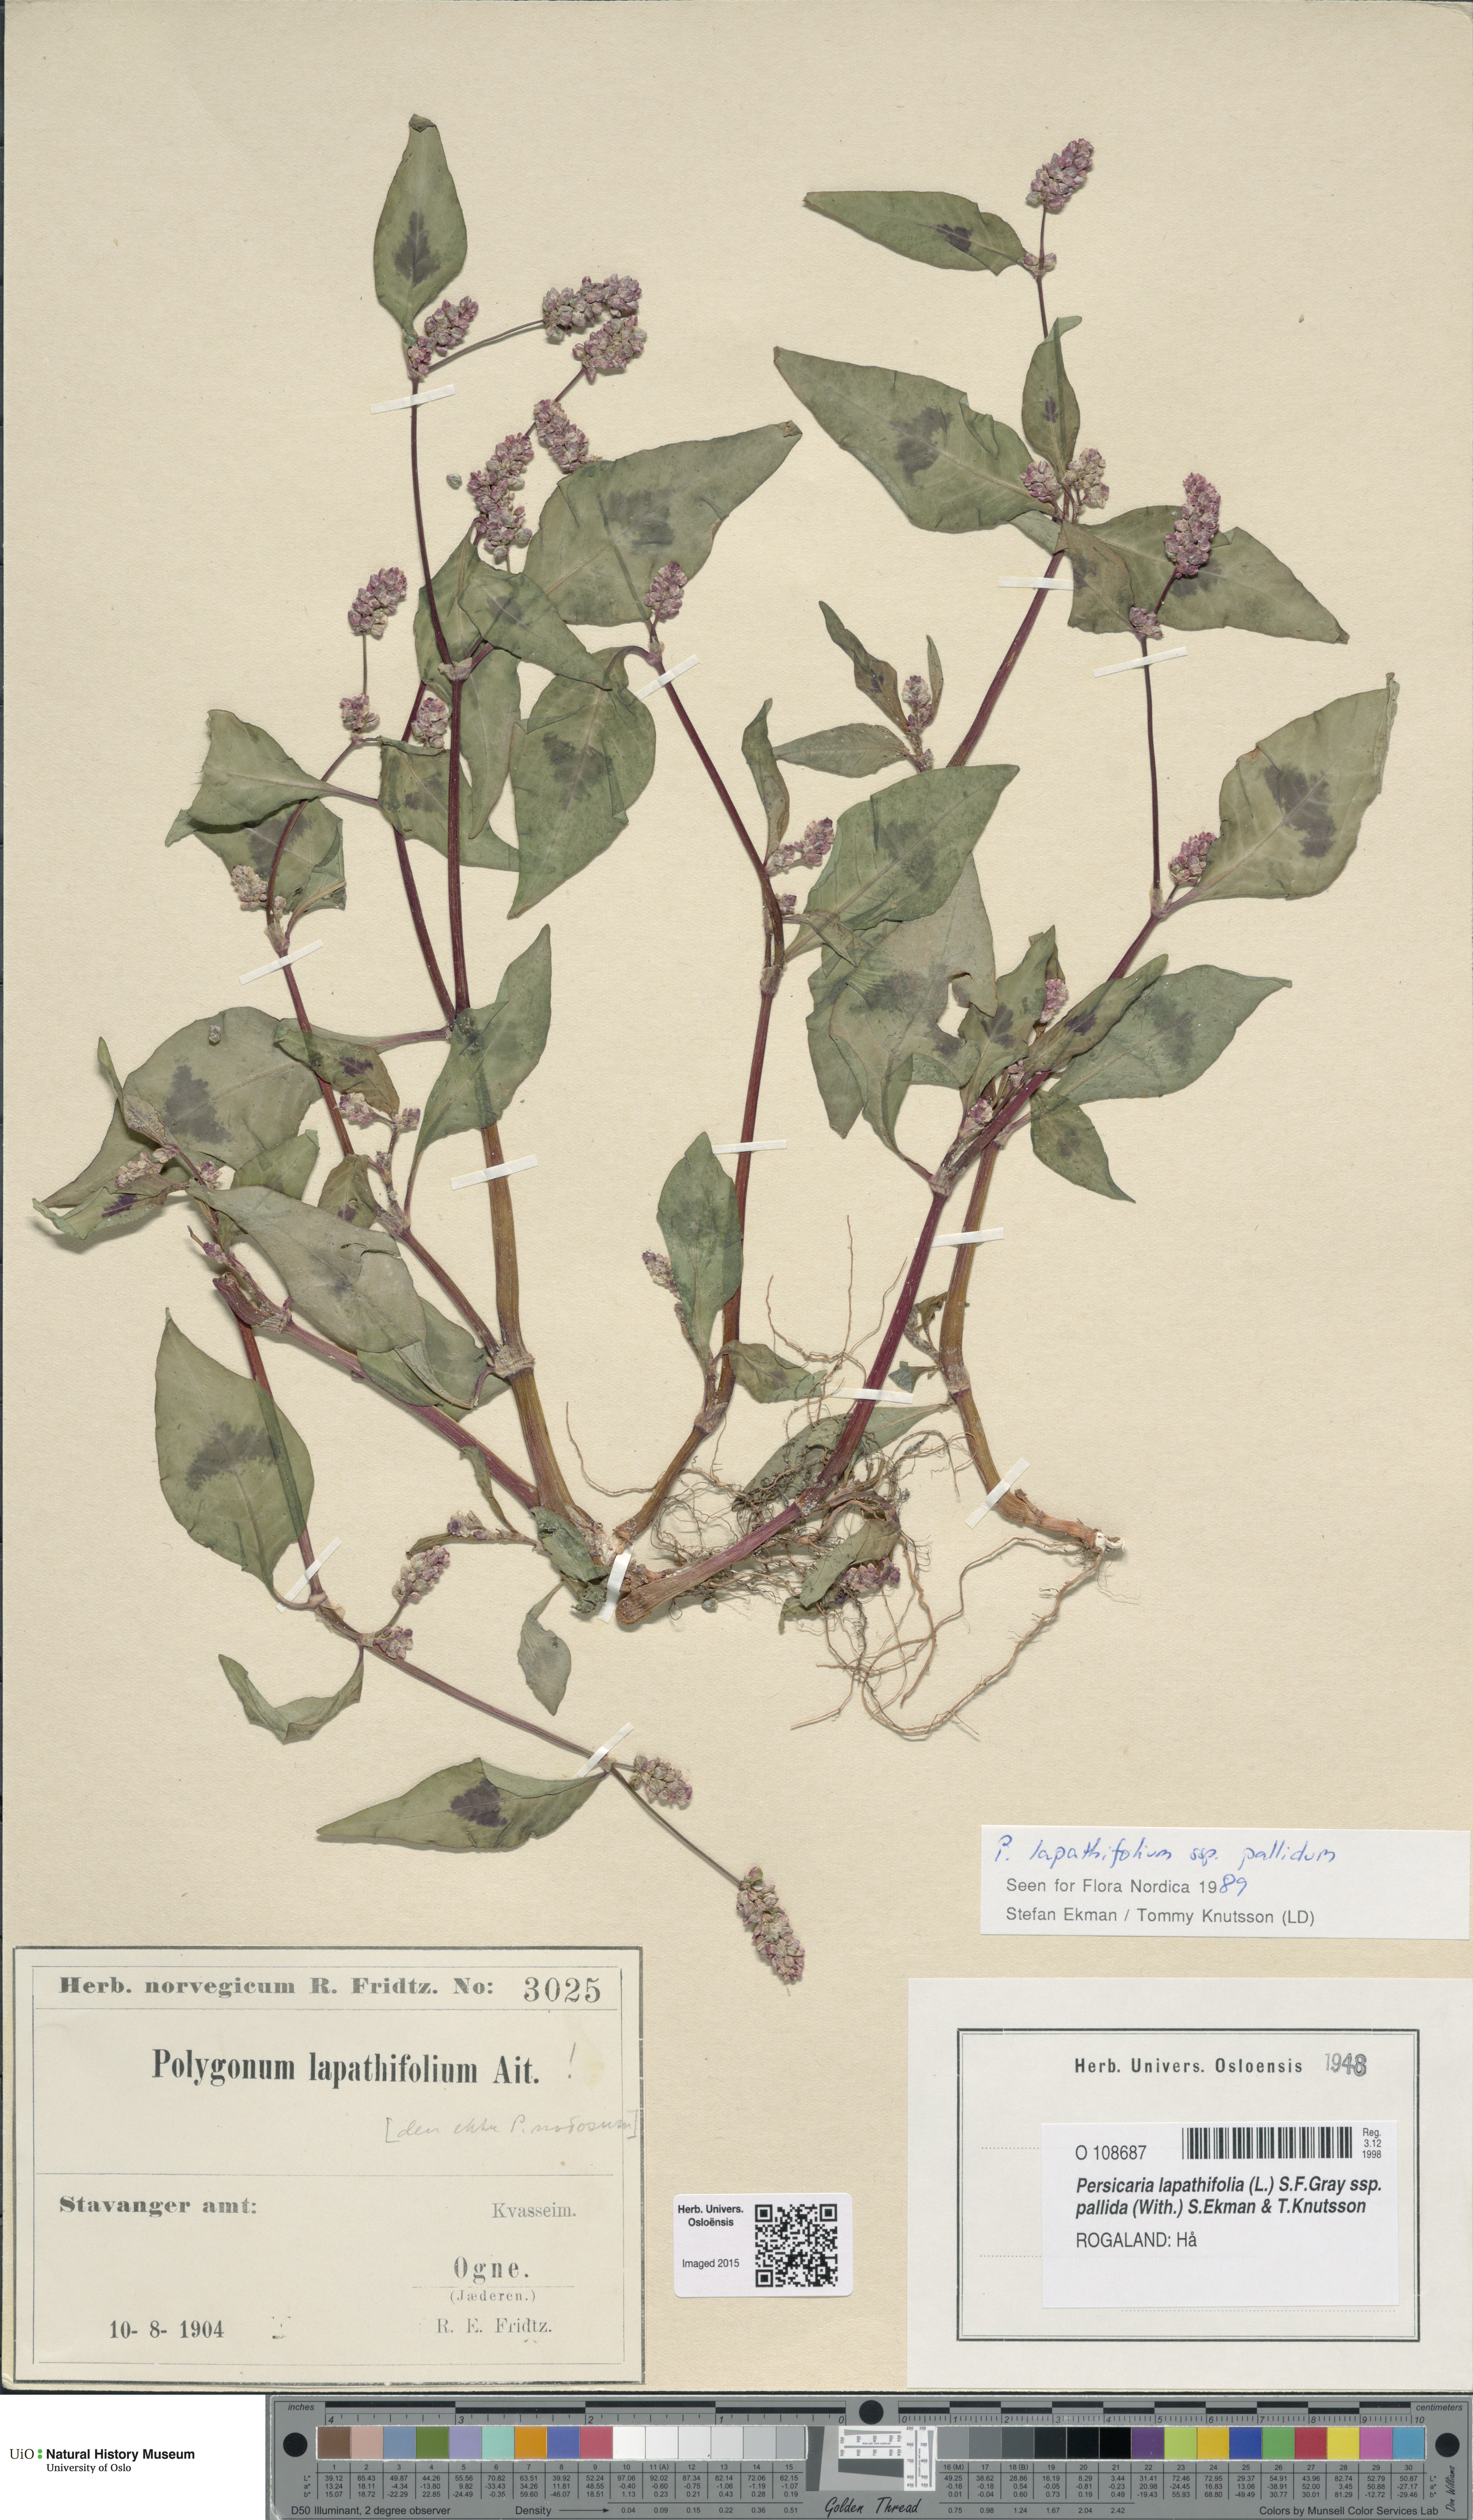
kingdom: Plantae
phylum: Tracheophyta
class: Magnoliopsida
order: Caryophyllales
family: Polygonaceae
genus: Persicaria
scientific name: Persicaria lapathifolia
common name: Curlytop knotweed
